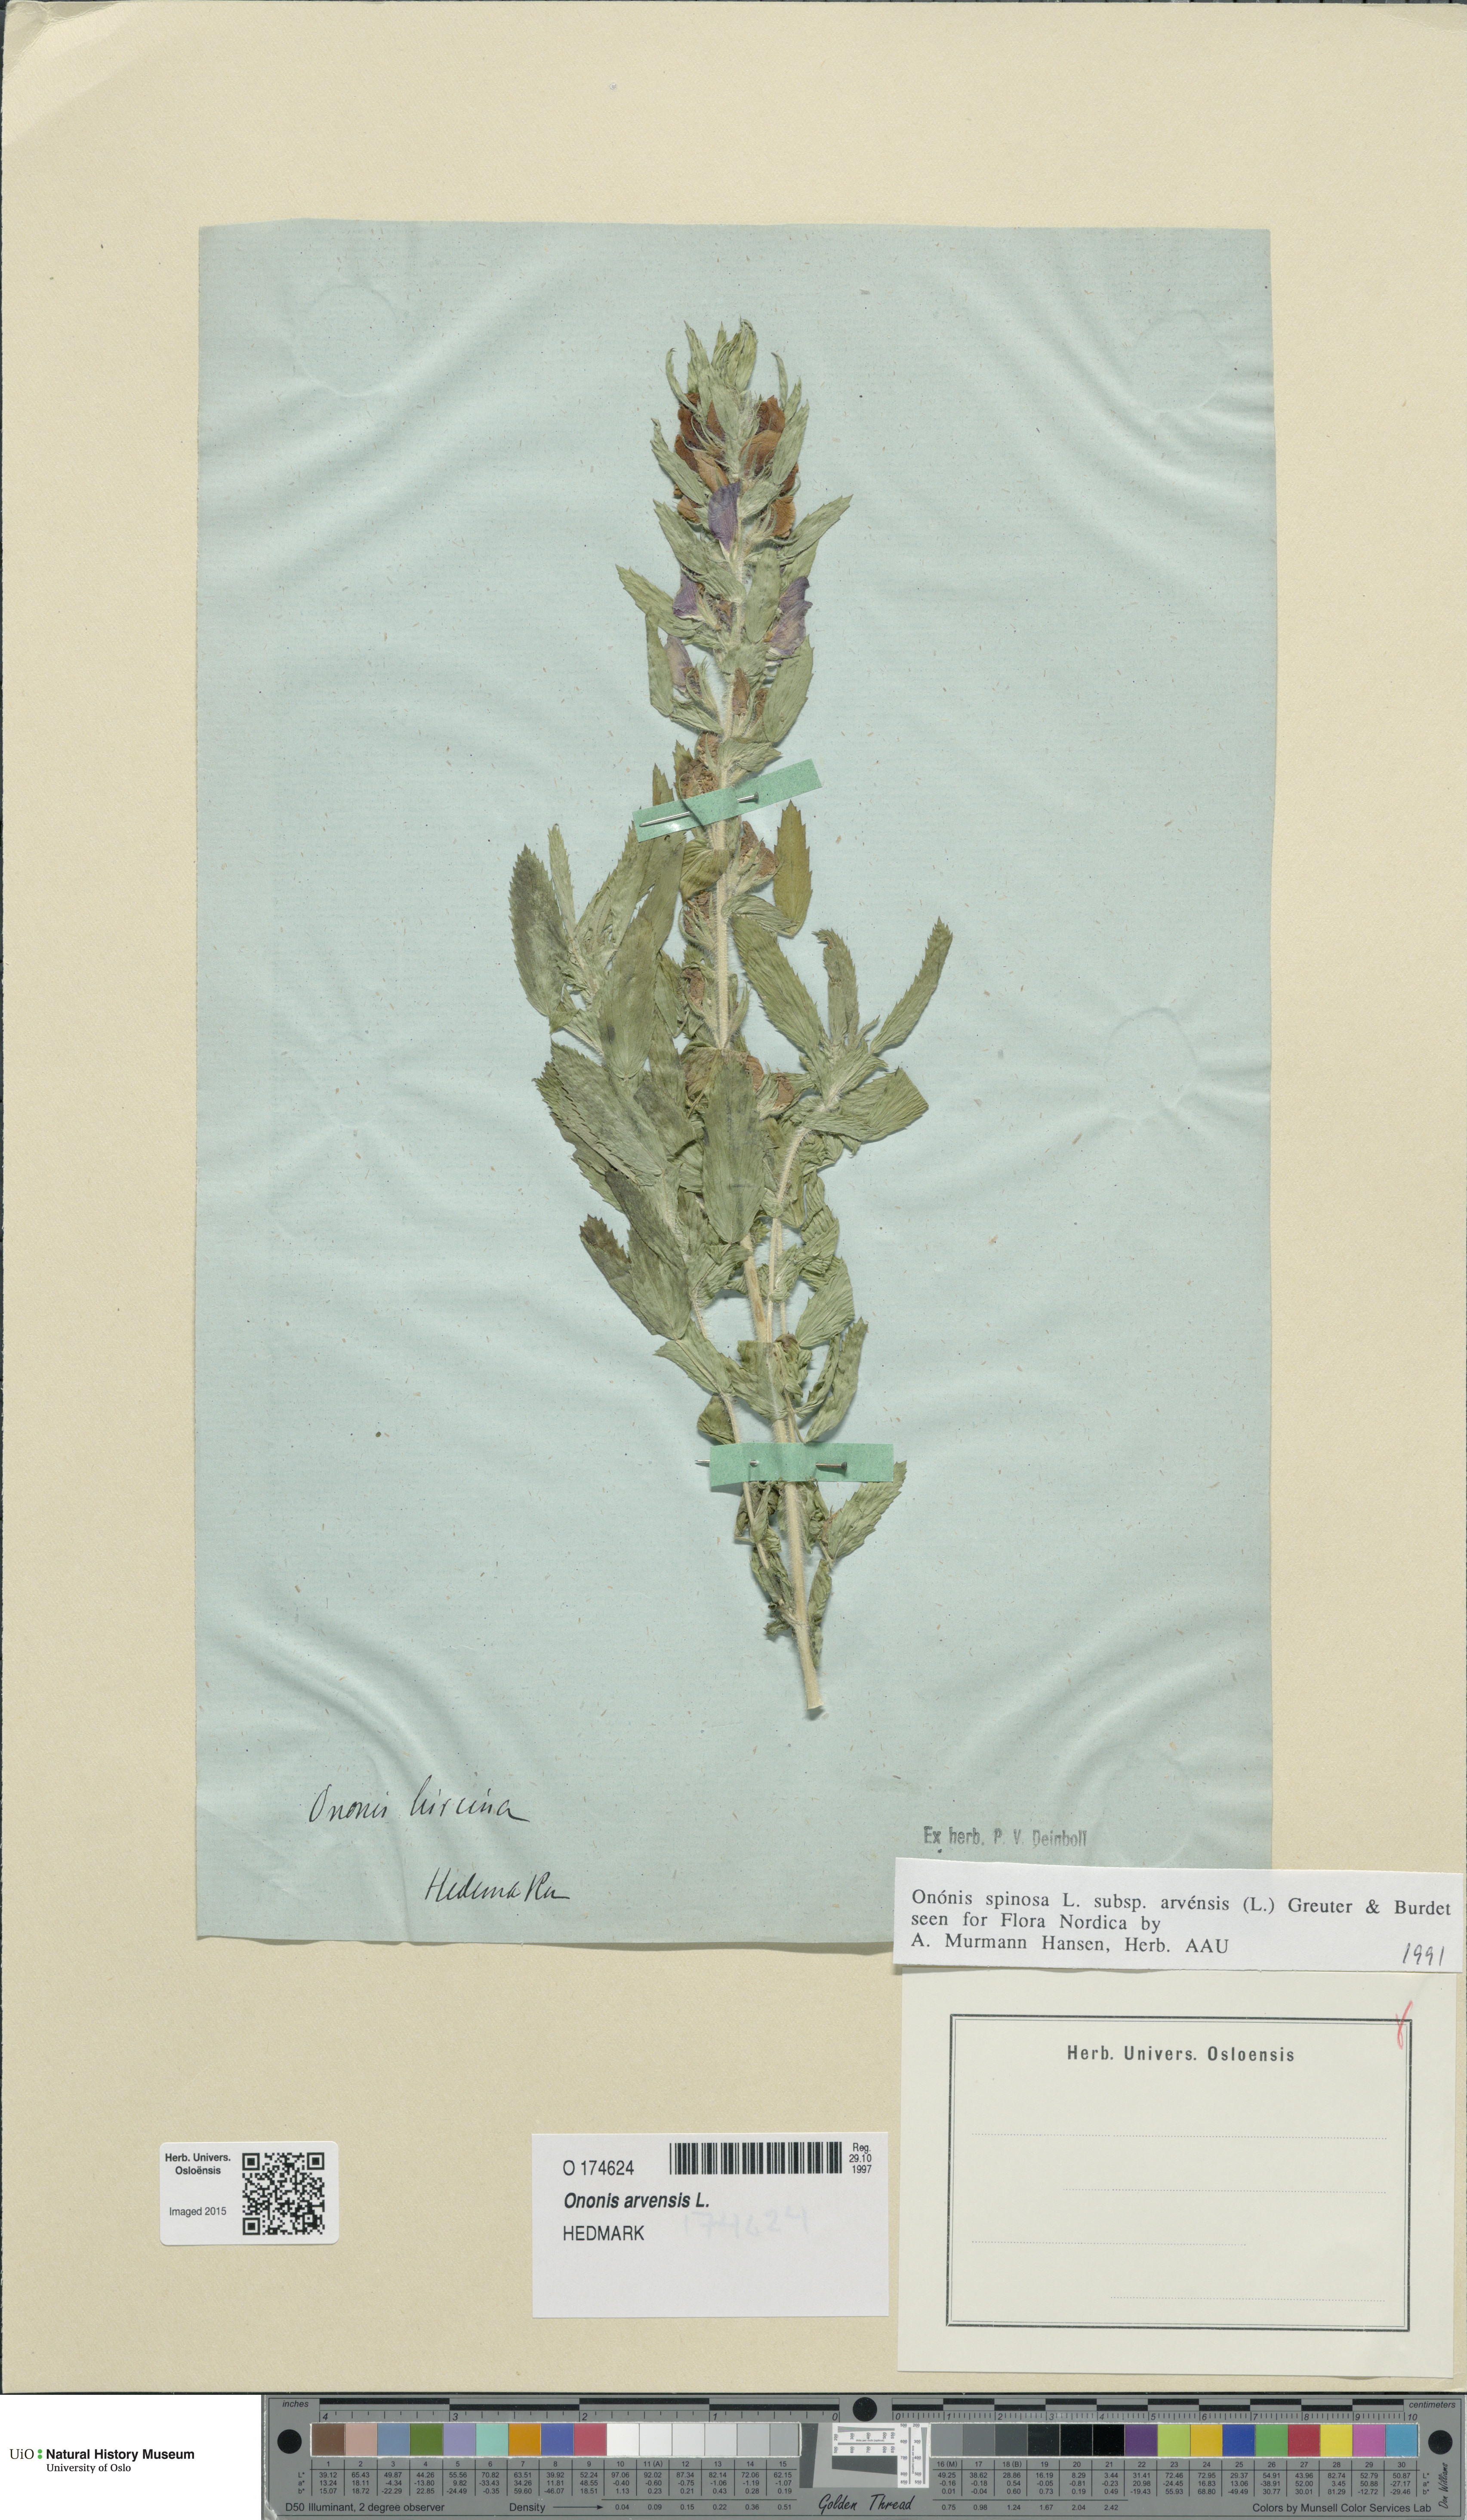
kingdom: Plantae
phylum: Tracheophyta
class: Magnoliopsida
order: Fabales
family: Fabaceae
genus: Ononis
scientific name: Ononis arvensis
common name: Field restharrow
